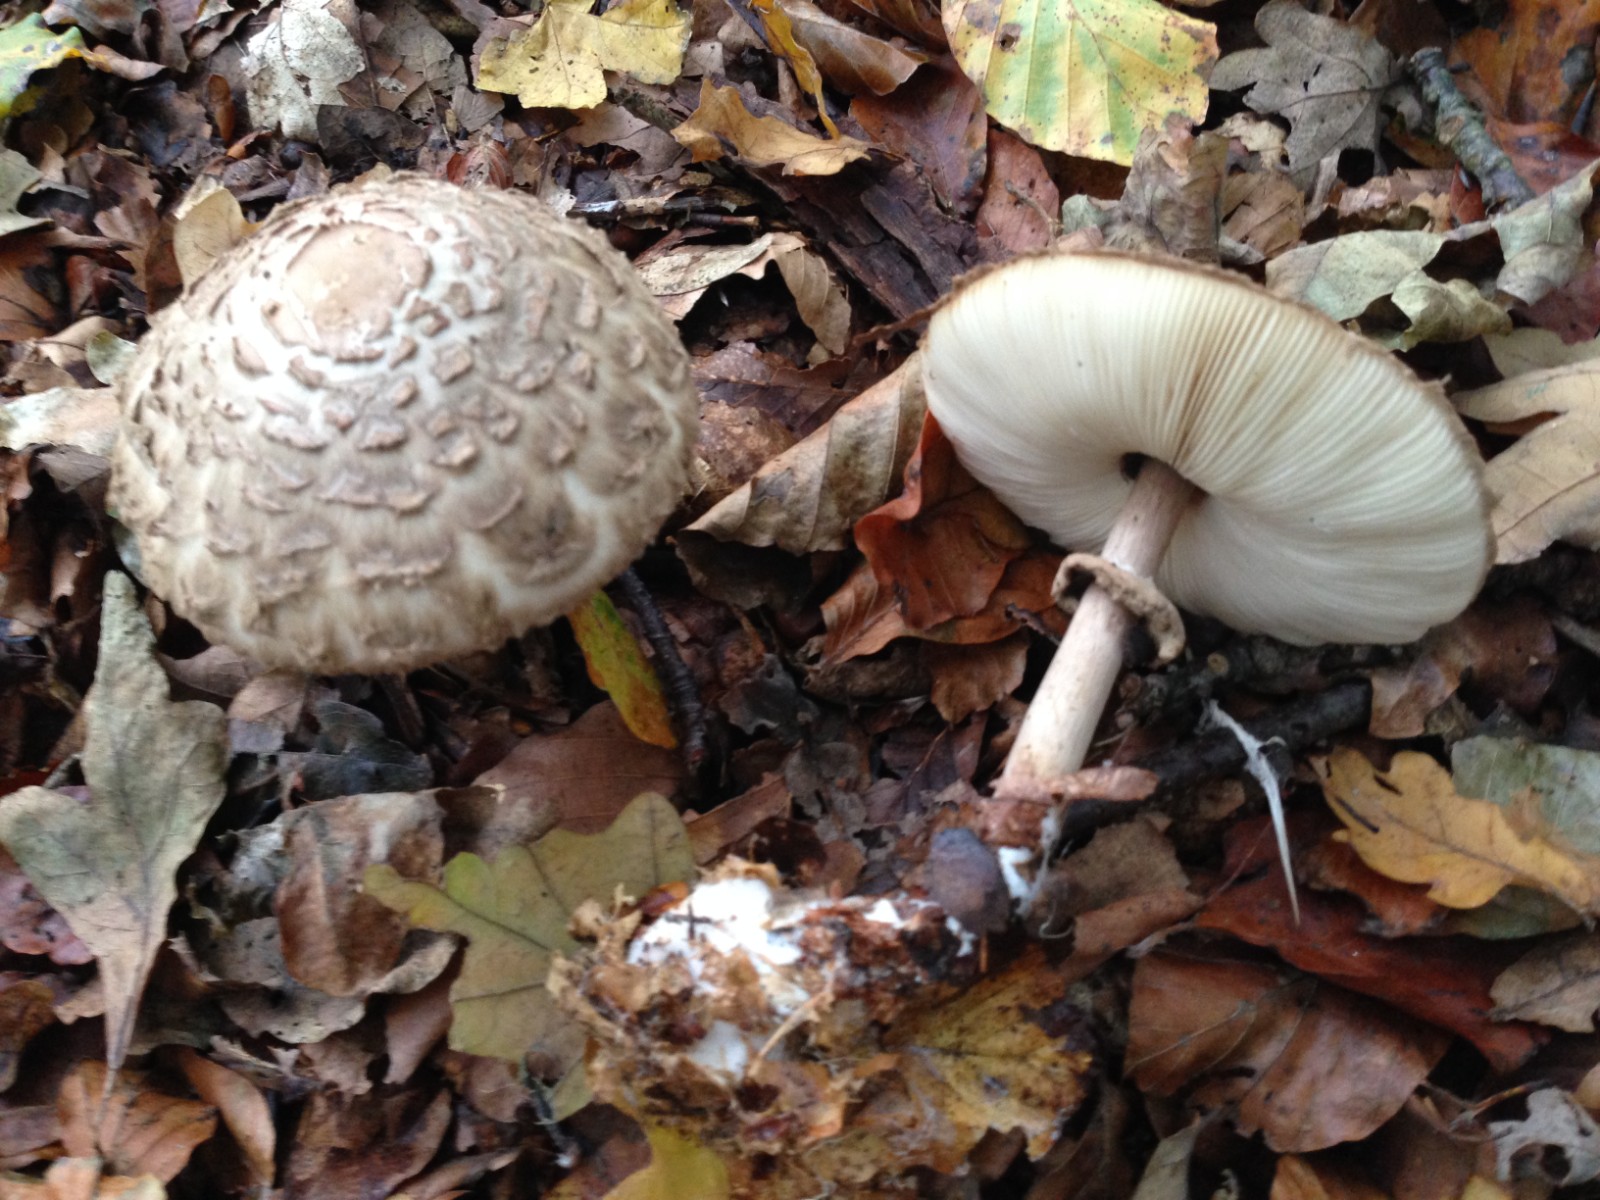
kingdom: Fungi
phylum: Basidiomycota
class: Agaricomycetes
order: Agaricales
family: Agaricaceae
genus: Chlorophyllum
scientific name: Chlorophyllum olivieri
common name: almindelig rabarberhat
